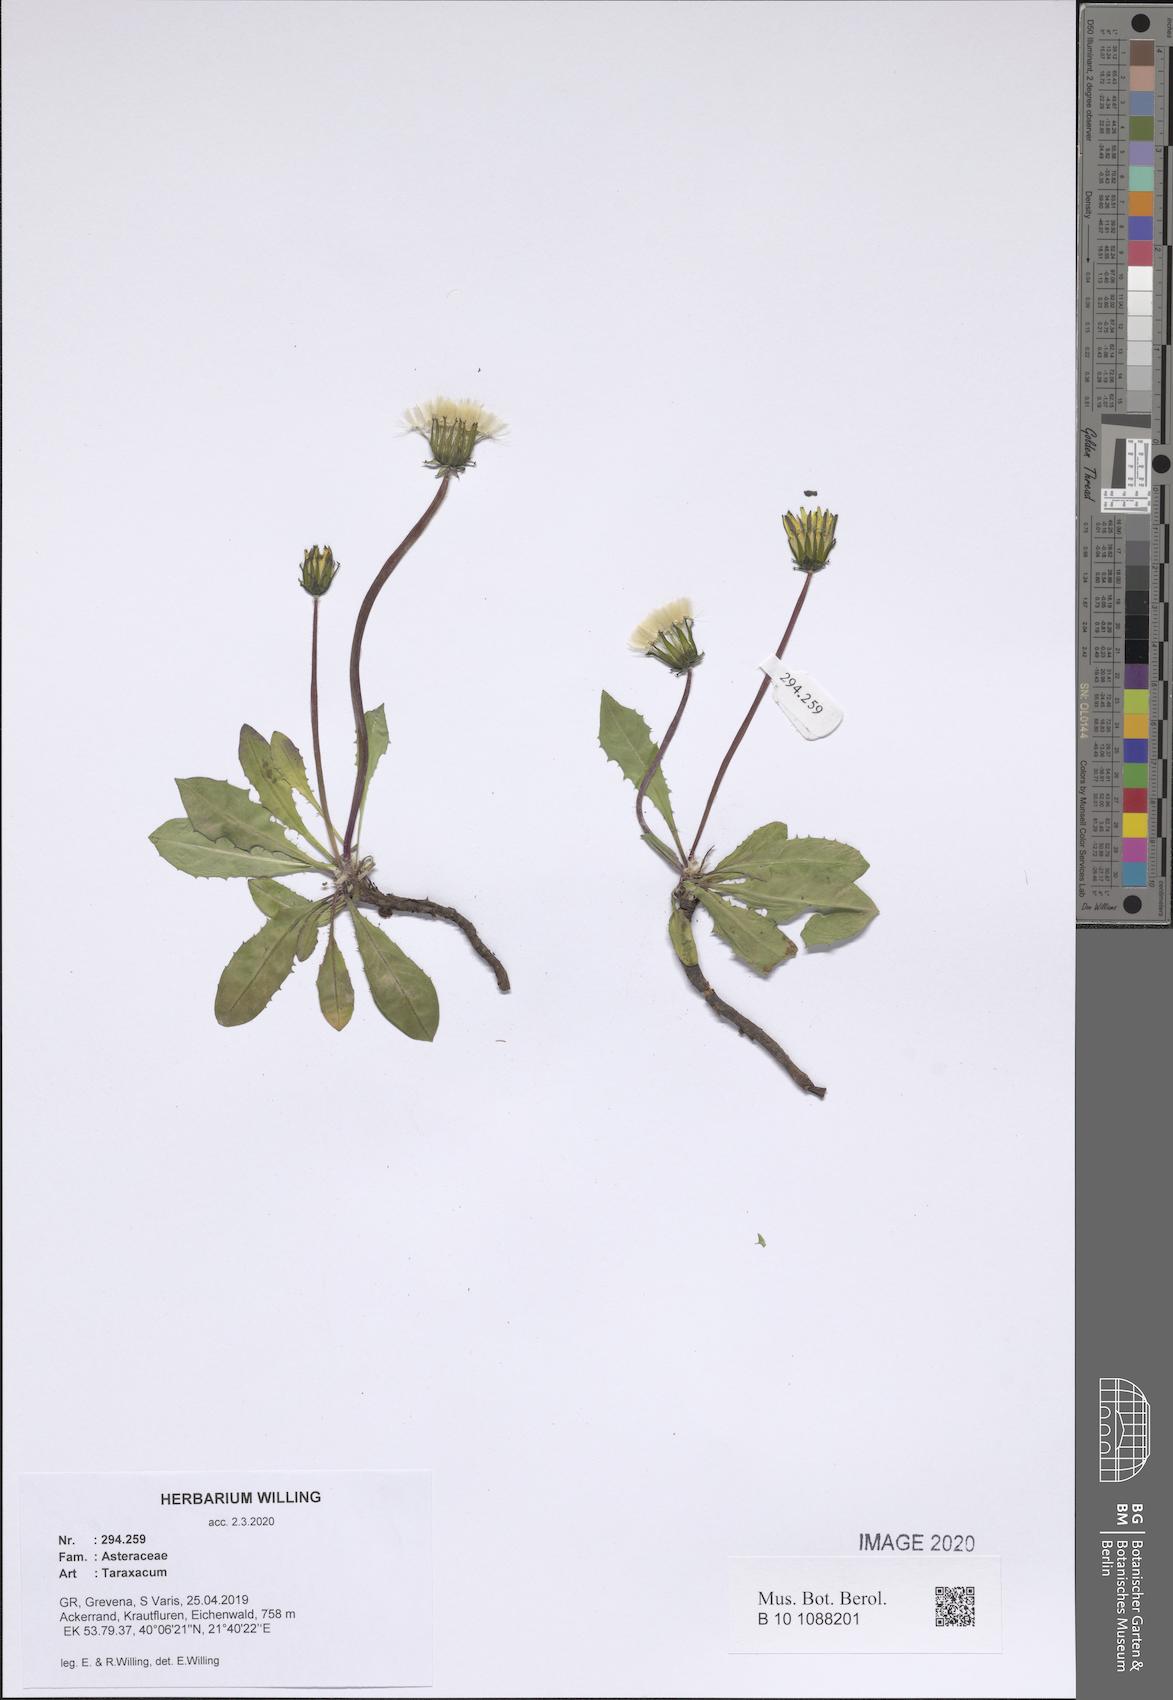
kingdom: Plantae
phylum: Tracheophyta
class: Magnoliopsida
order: Asterales
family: Asteraceae
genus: Taraxacum
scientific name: Taraxacum
